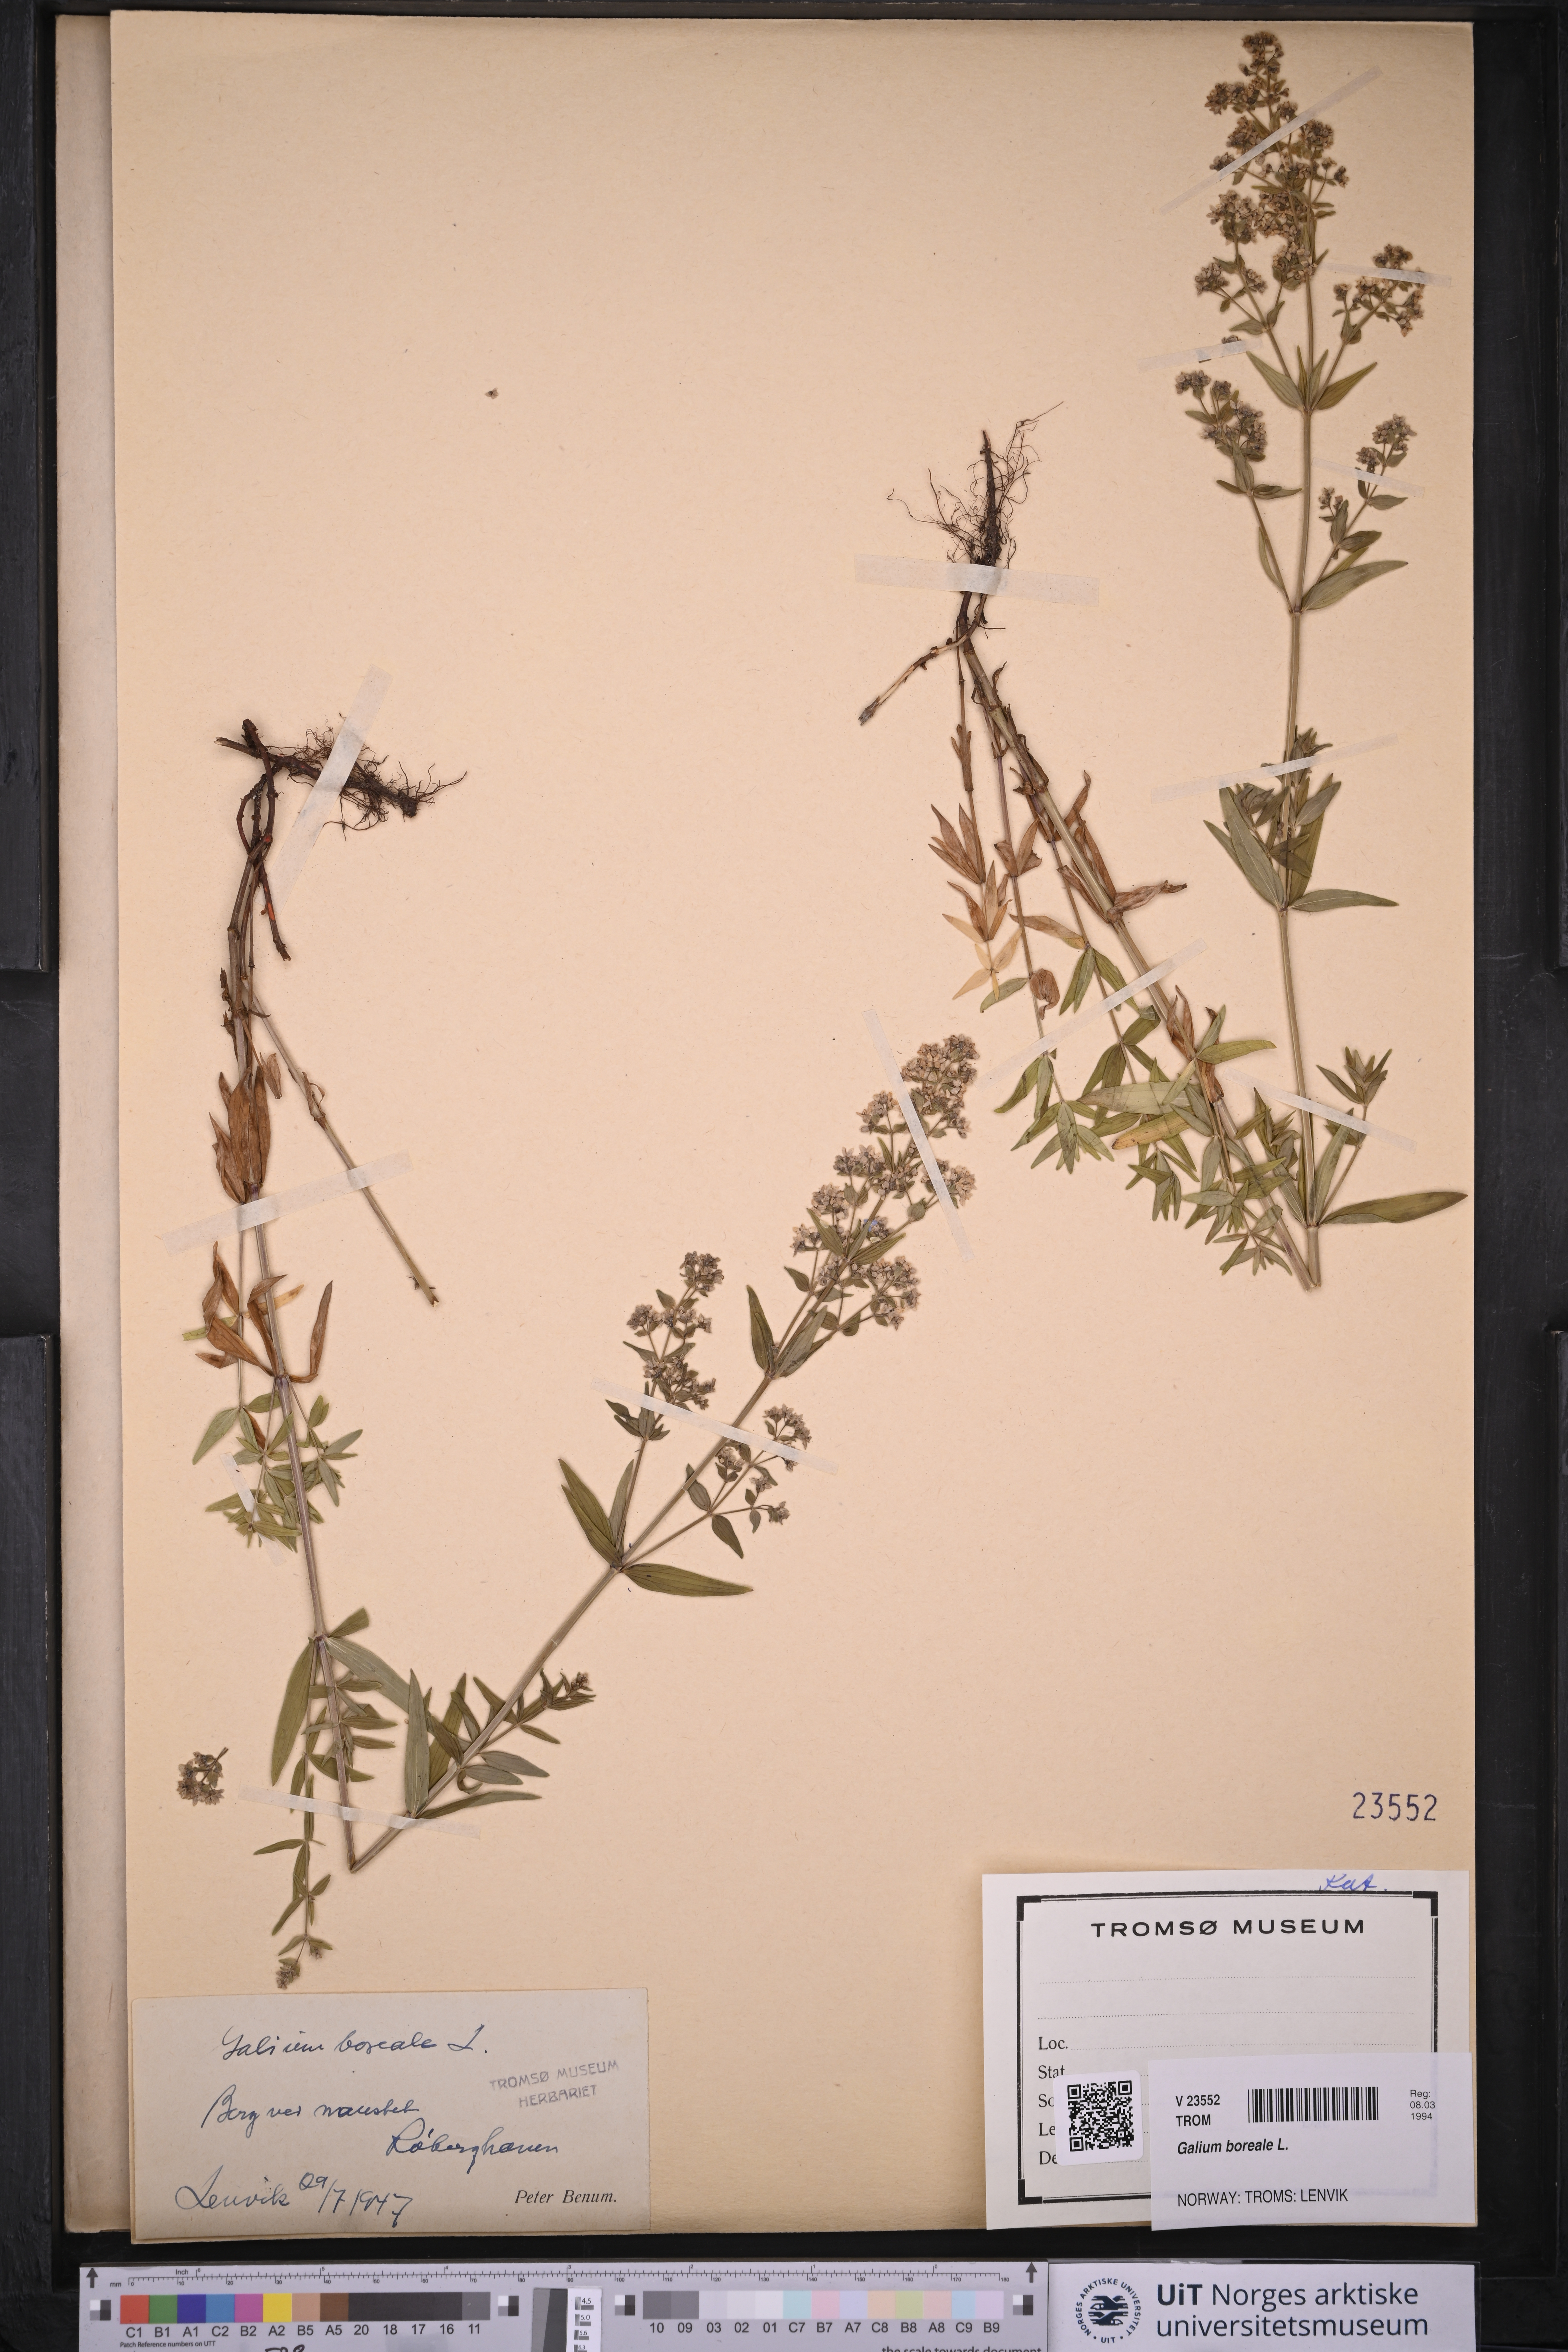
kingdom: Plantae
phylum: Tracheophyta
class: Magnoliopsida
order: Gentianales
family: Rubiaceae
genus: Galium
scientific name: Galium boreale
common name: Northern bedstraw
